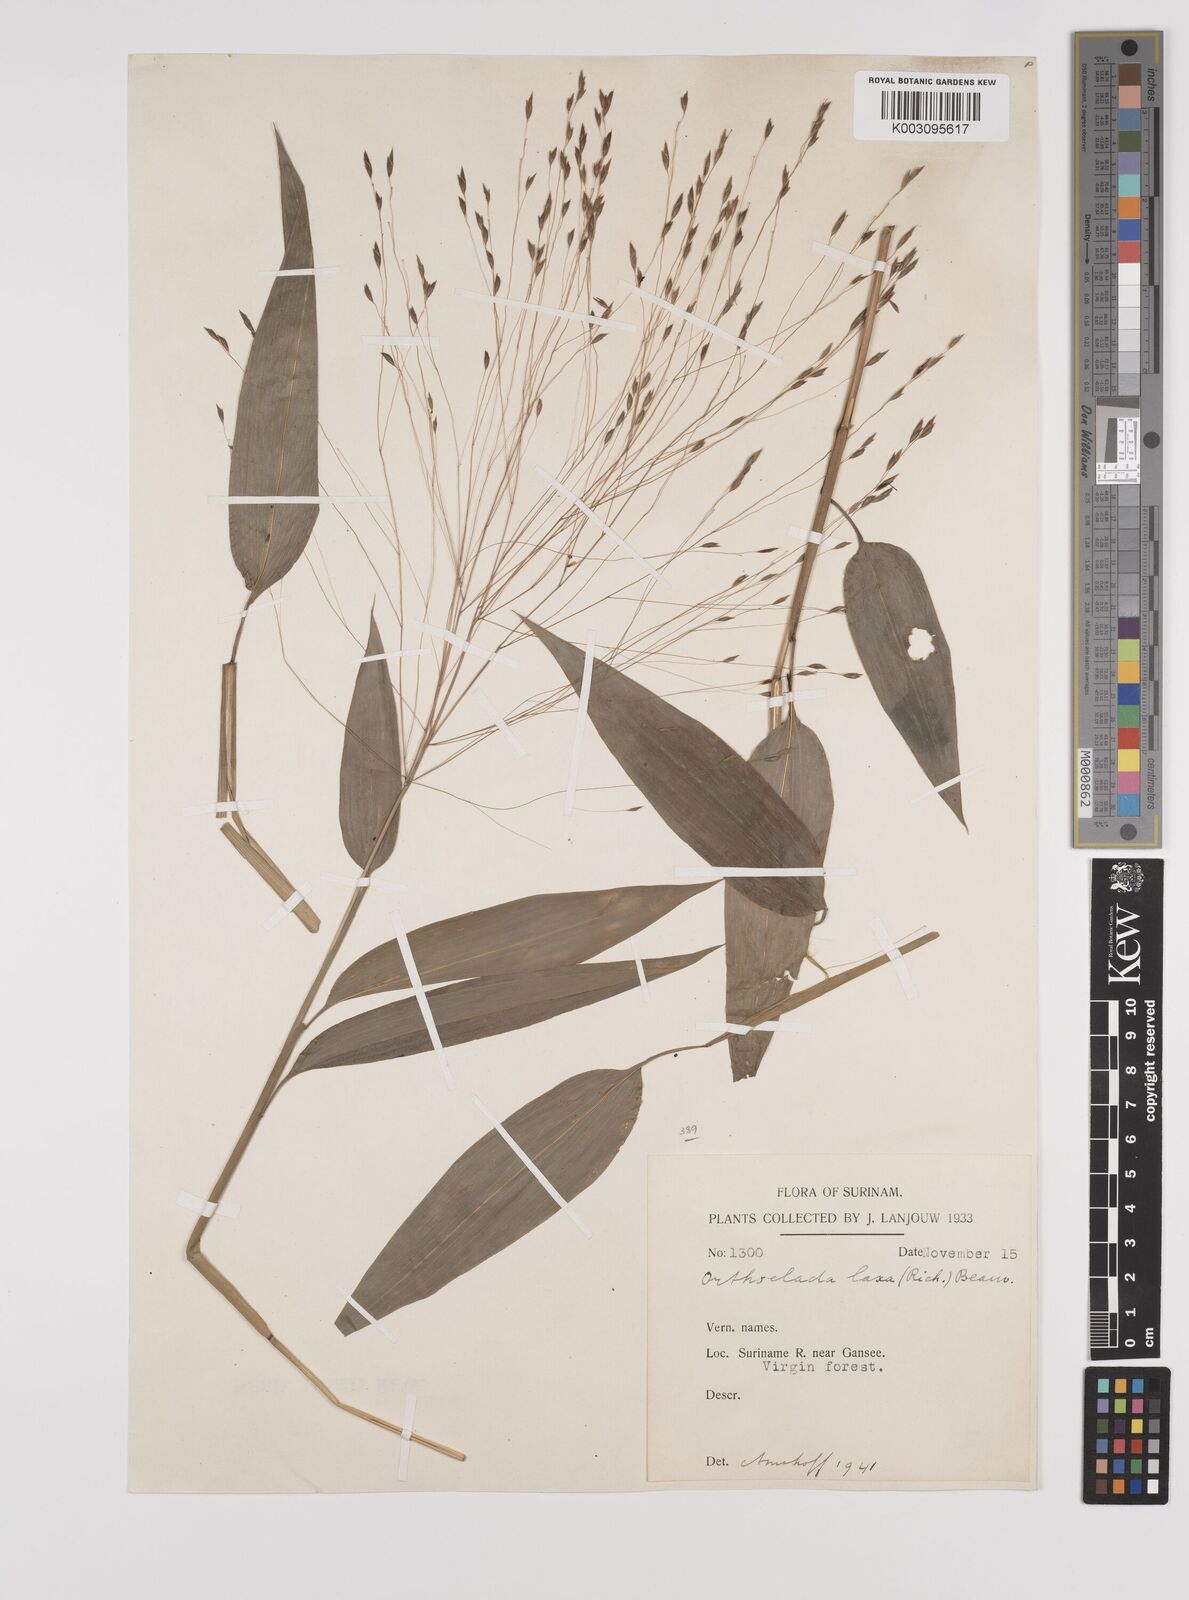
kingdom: Plantae
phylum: Tracheophyta
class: Liliopsida
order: Poales
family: Poaceae
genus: Orthoclada
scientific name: Orthoclada laxa
